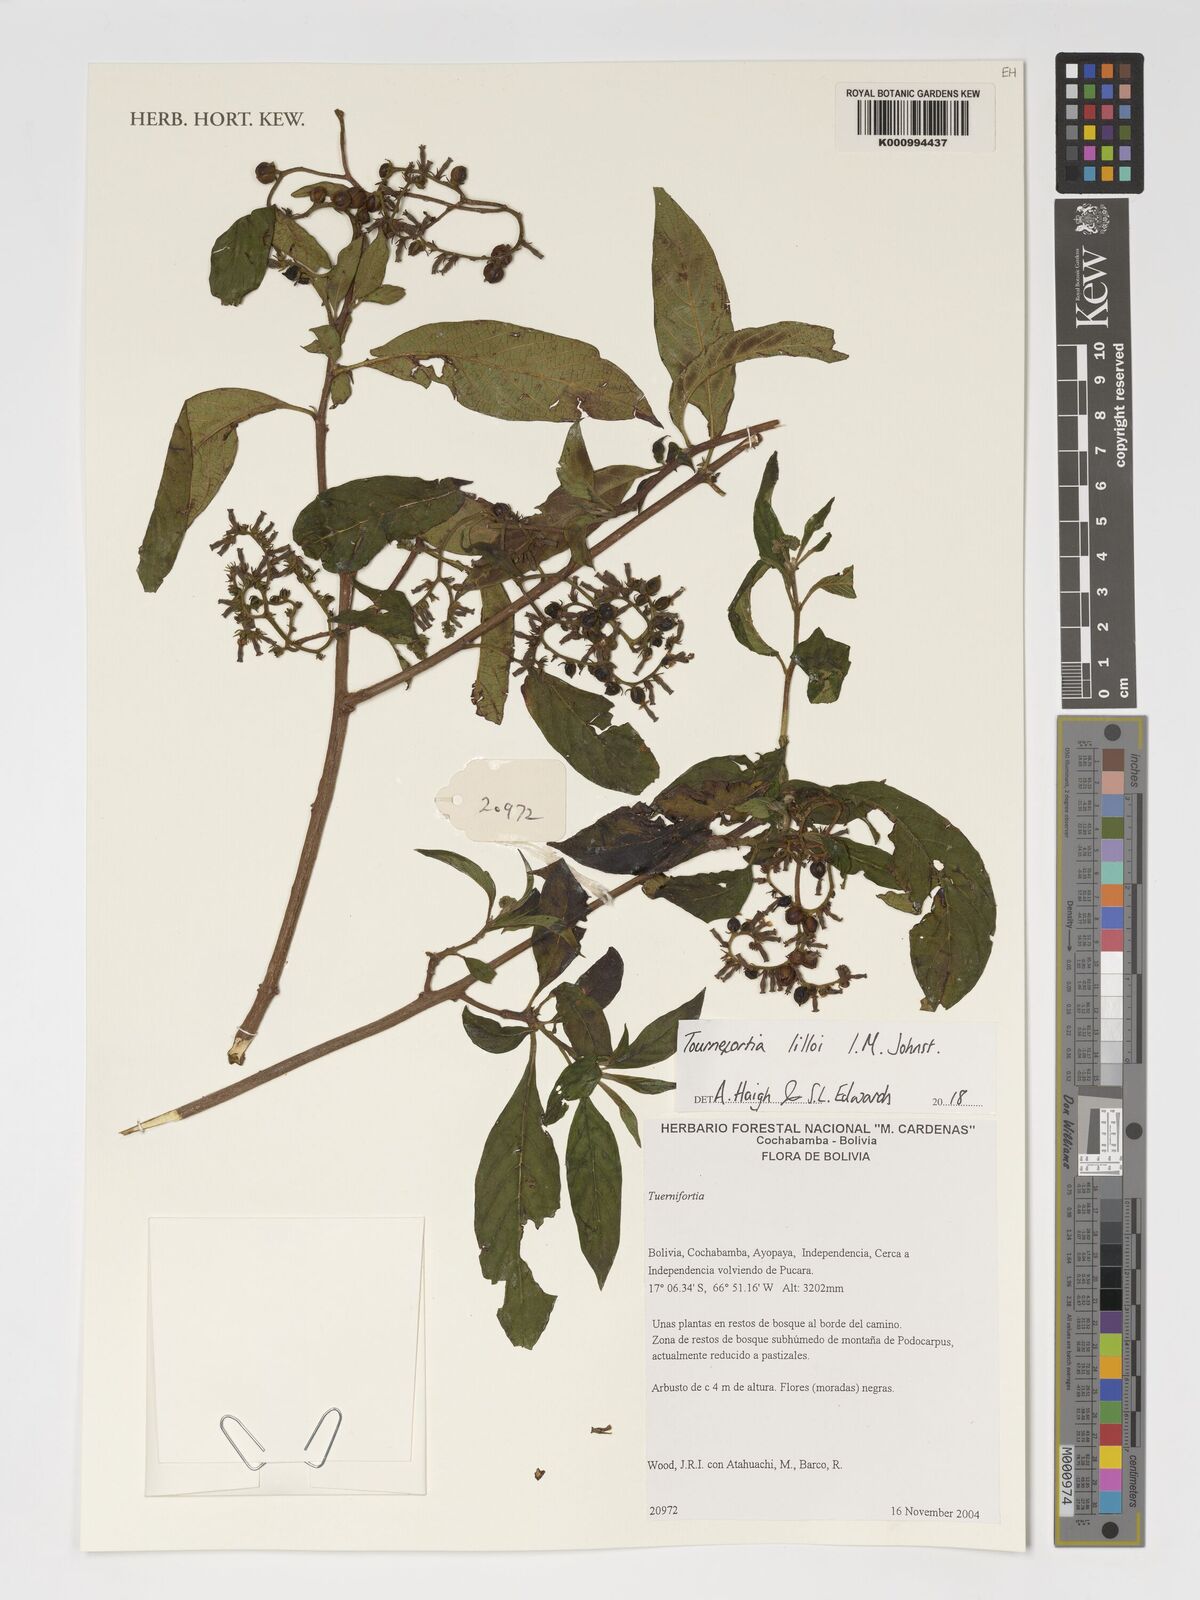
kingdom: Plantae
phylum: Tracheophyta
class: Magnoliopsida
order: Boraginales
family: Heliotropiaceae
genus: Heliotropium
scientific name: Heliotropium lilloi
